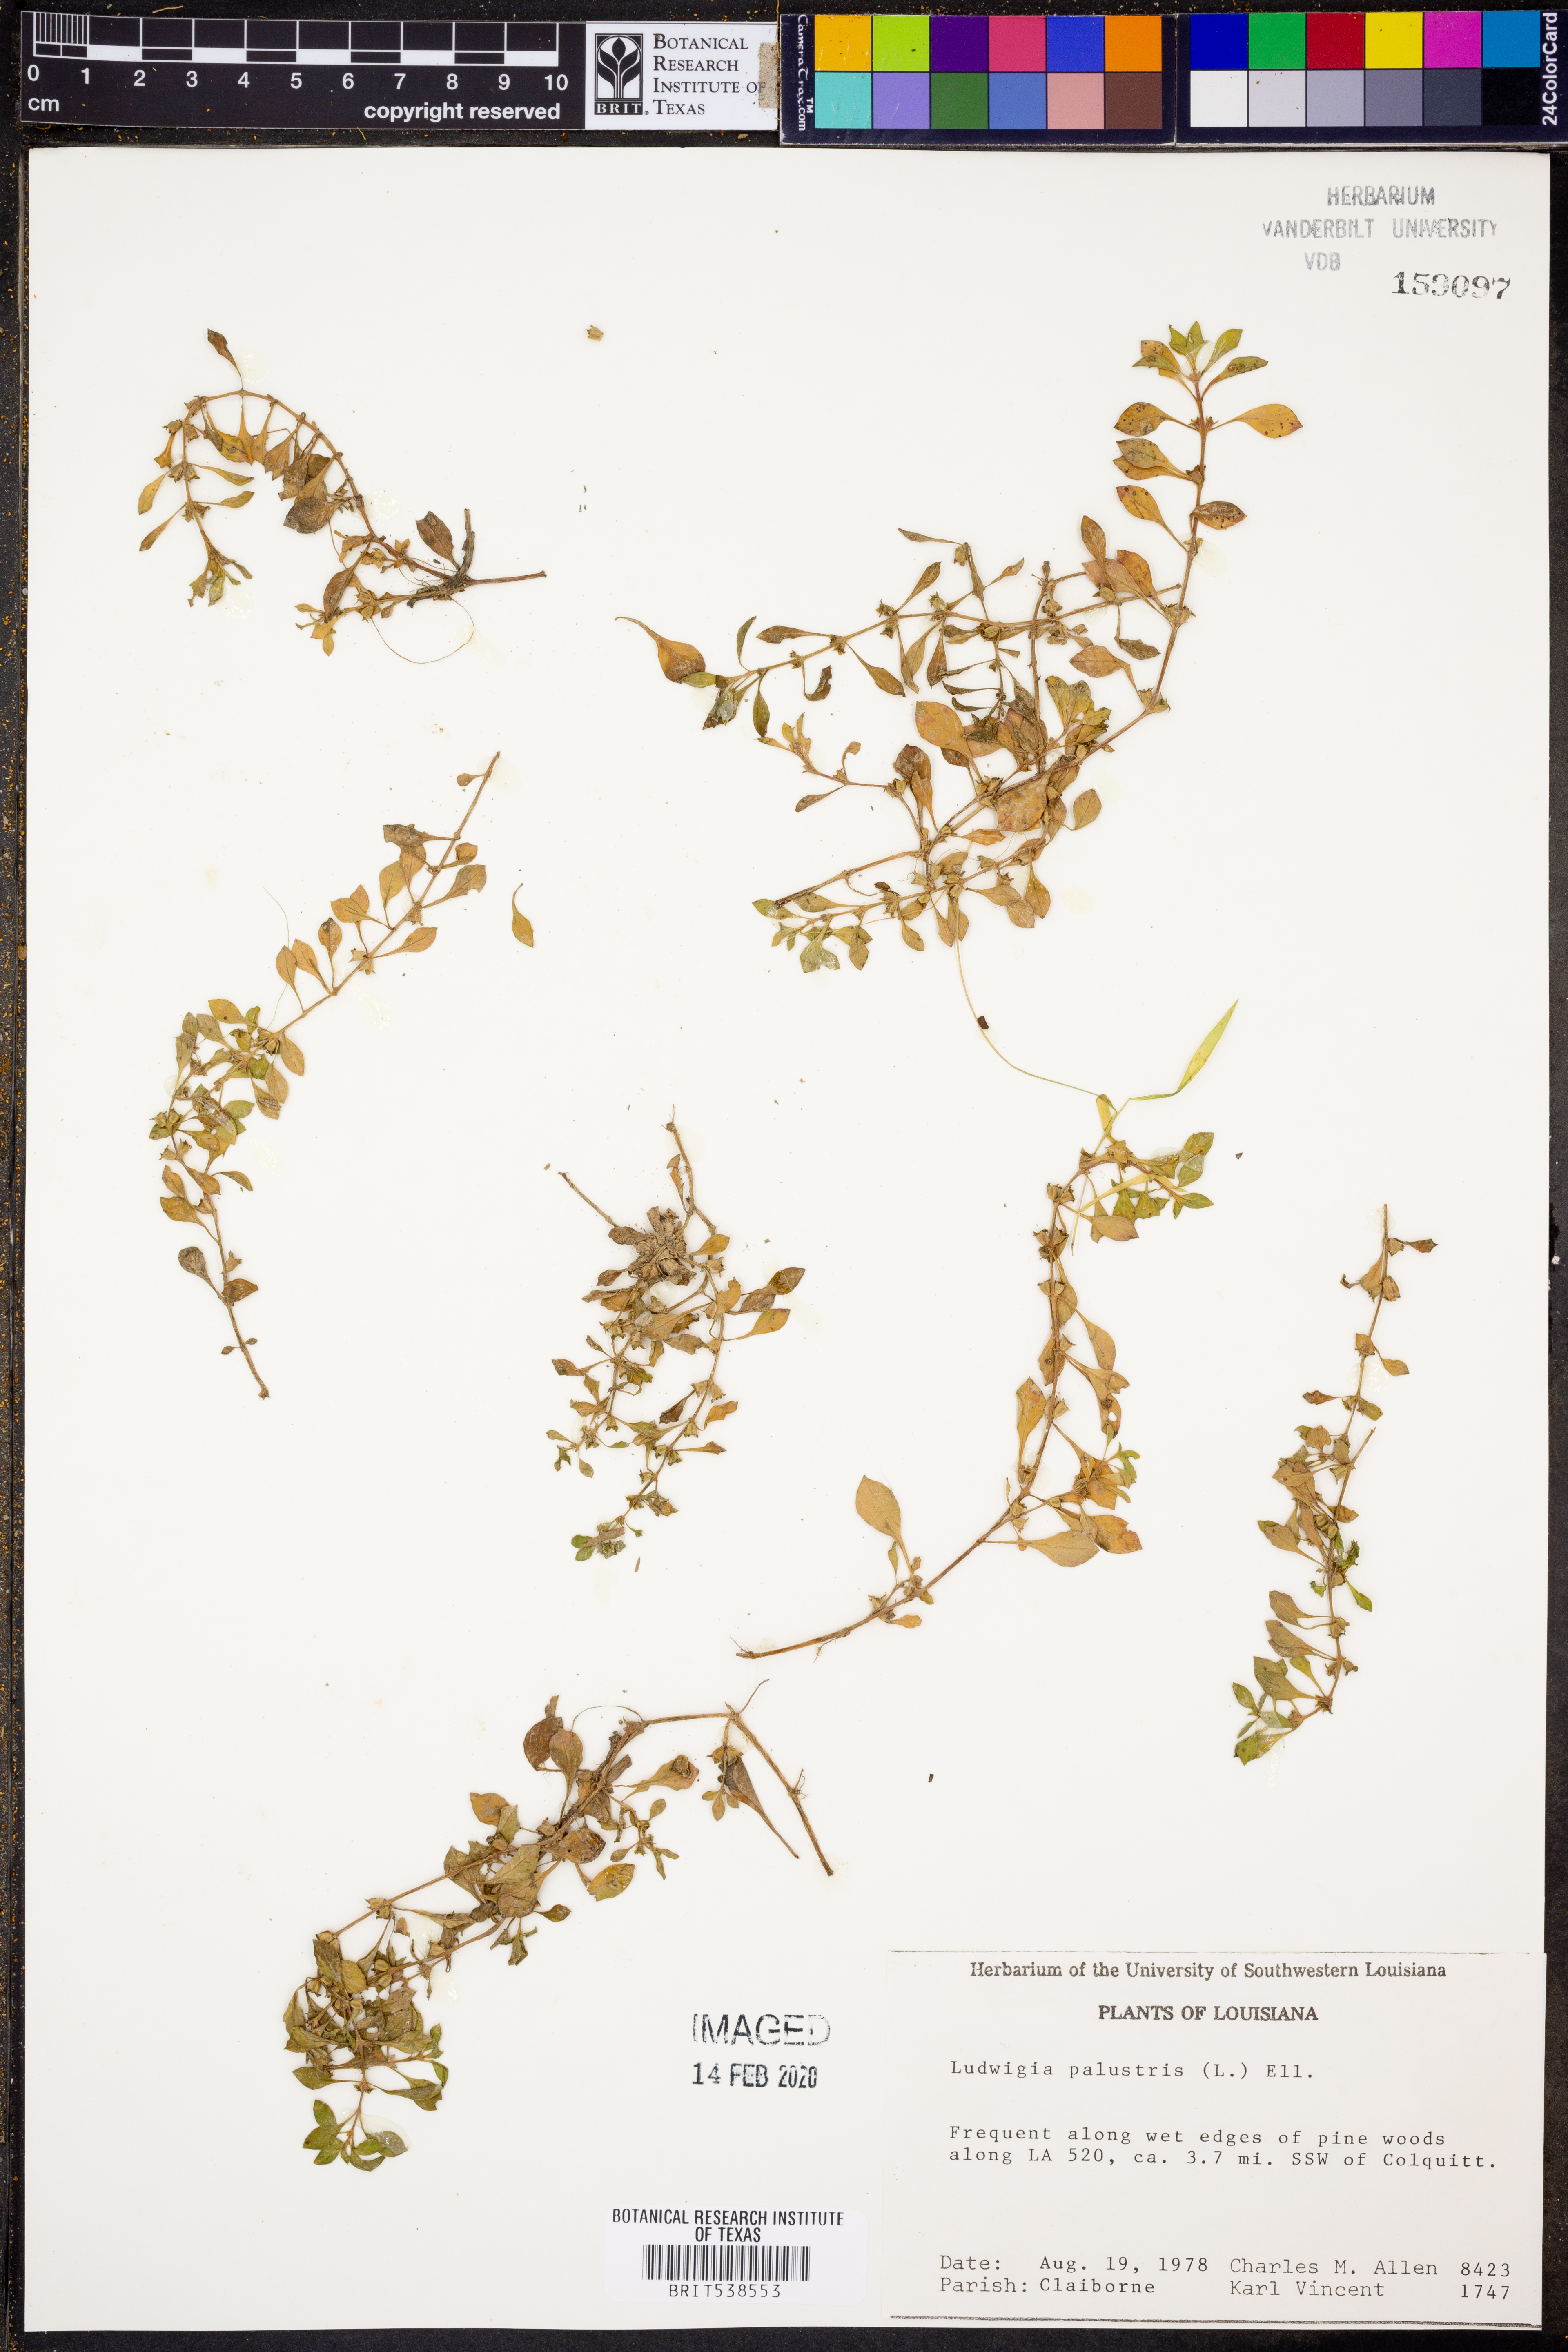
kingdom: Plantae
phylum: Tracheophyta
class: Magnoliopsida
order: Myrtales
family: Onagraceae
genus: Ludwigia
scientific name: Ludwigia palustris
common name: Hampshire-purslane
